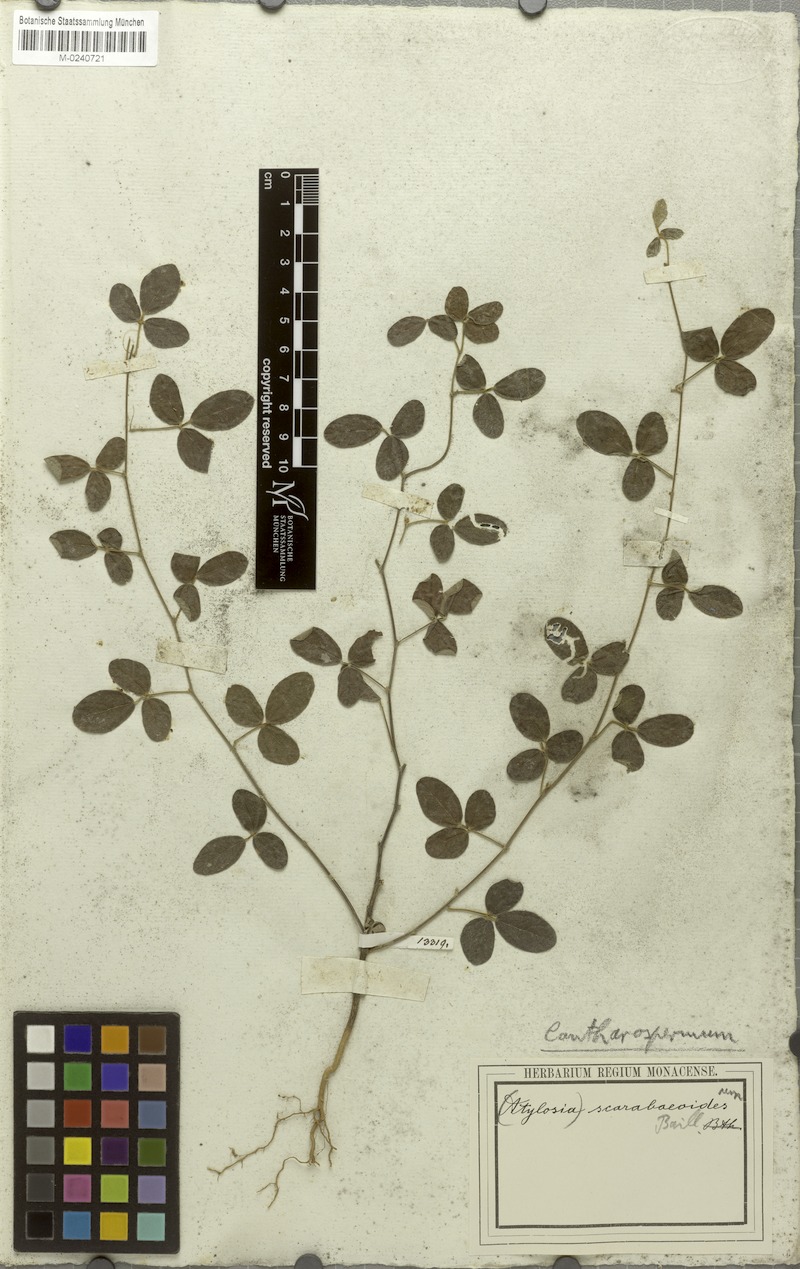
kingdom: Plantae
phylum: Tracheophyta
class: Magnoliopsida
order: Fabales
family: Fabaceae
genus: Cajanus
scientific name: Cajanus scarabaeoides
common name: Showy pigeonpea
